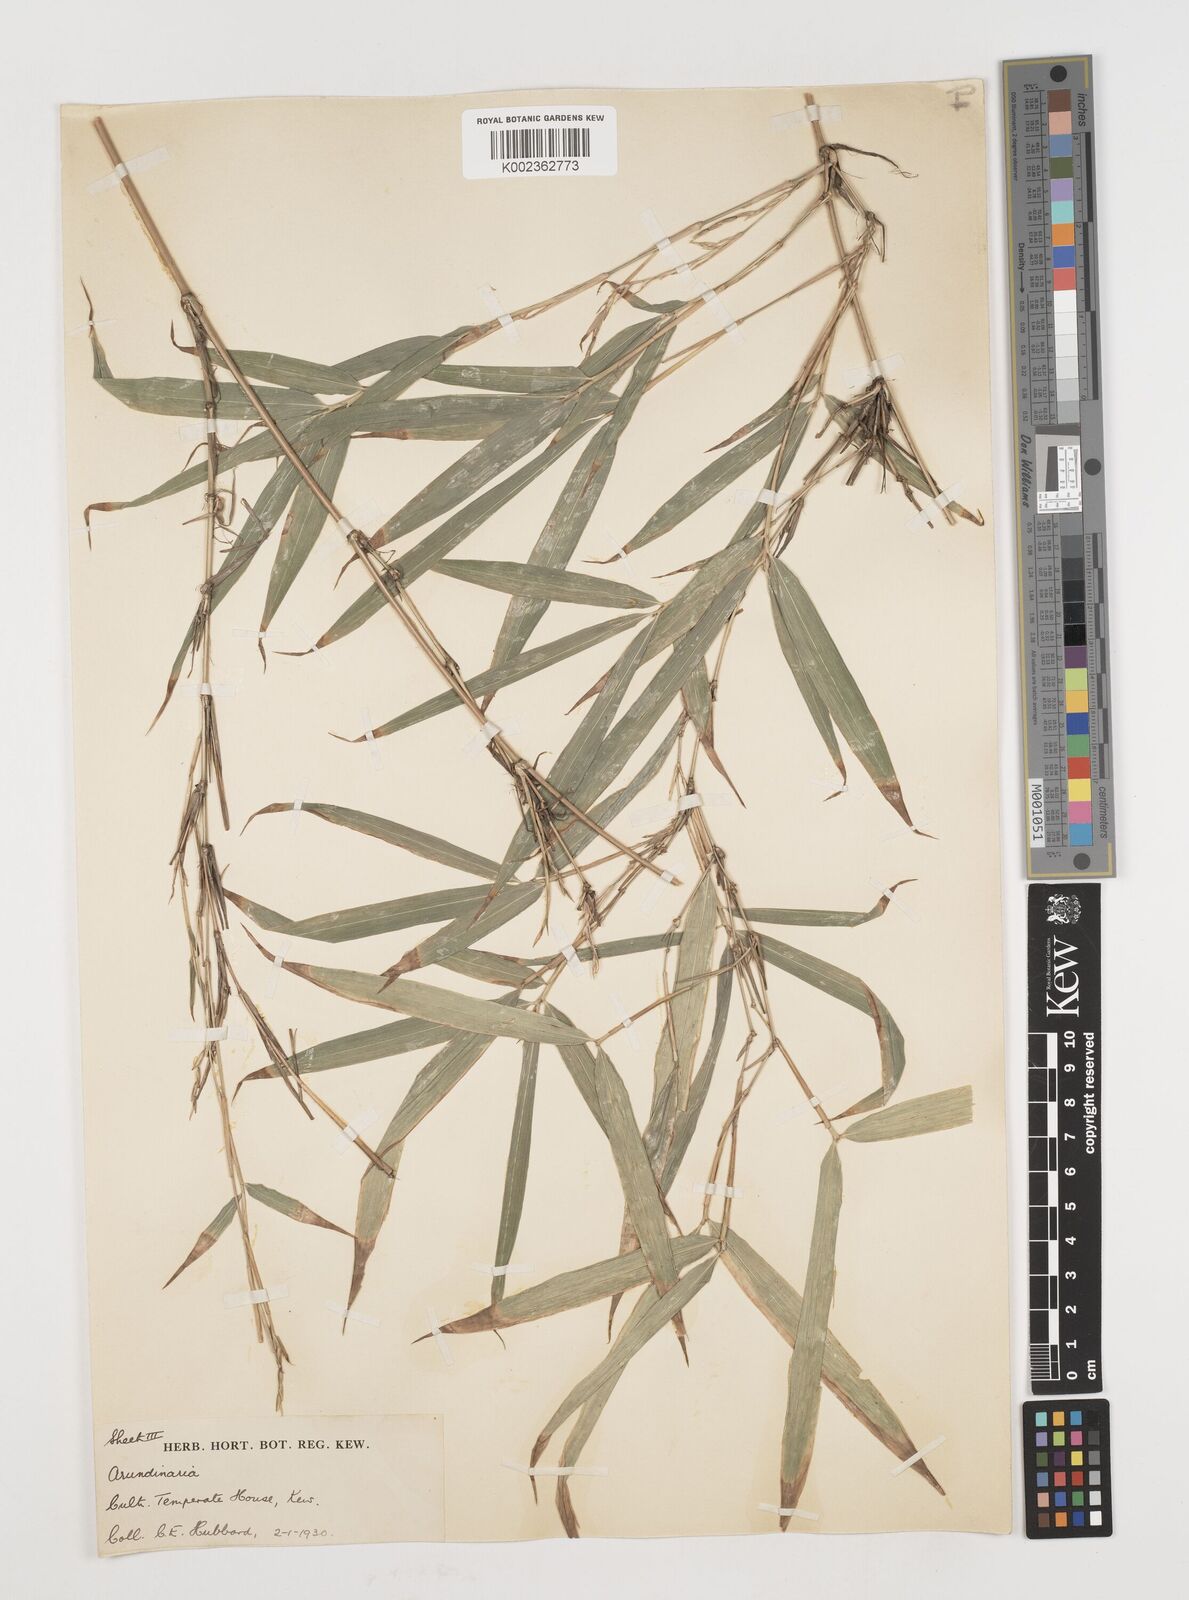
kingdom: Plantae
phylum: Tracheophyta
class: Liliopsida
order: Poales
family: Poaceae
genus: Chimonobambusa
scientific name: Chimonobambusa marmorea
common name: Marbled bamboo
